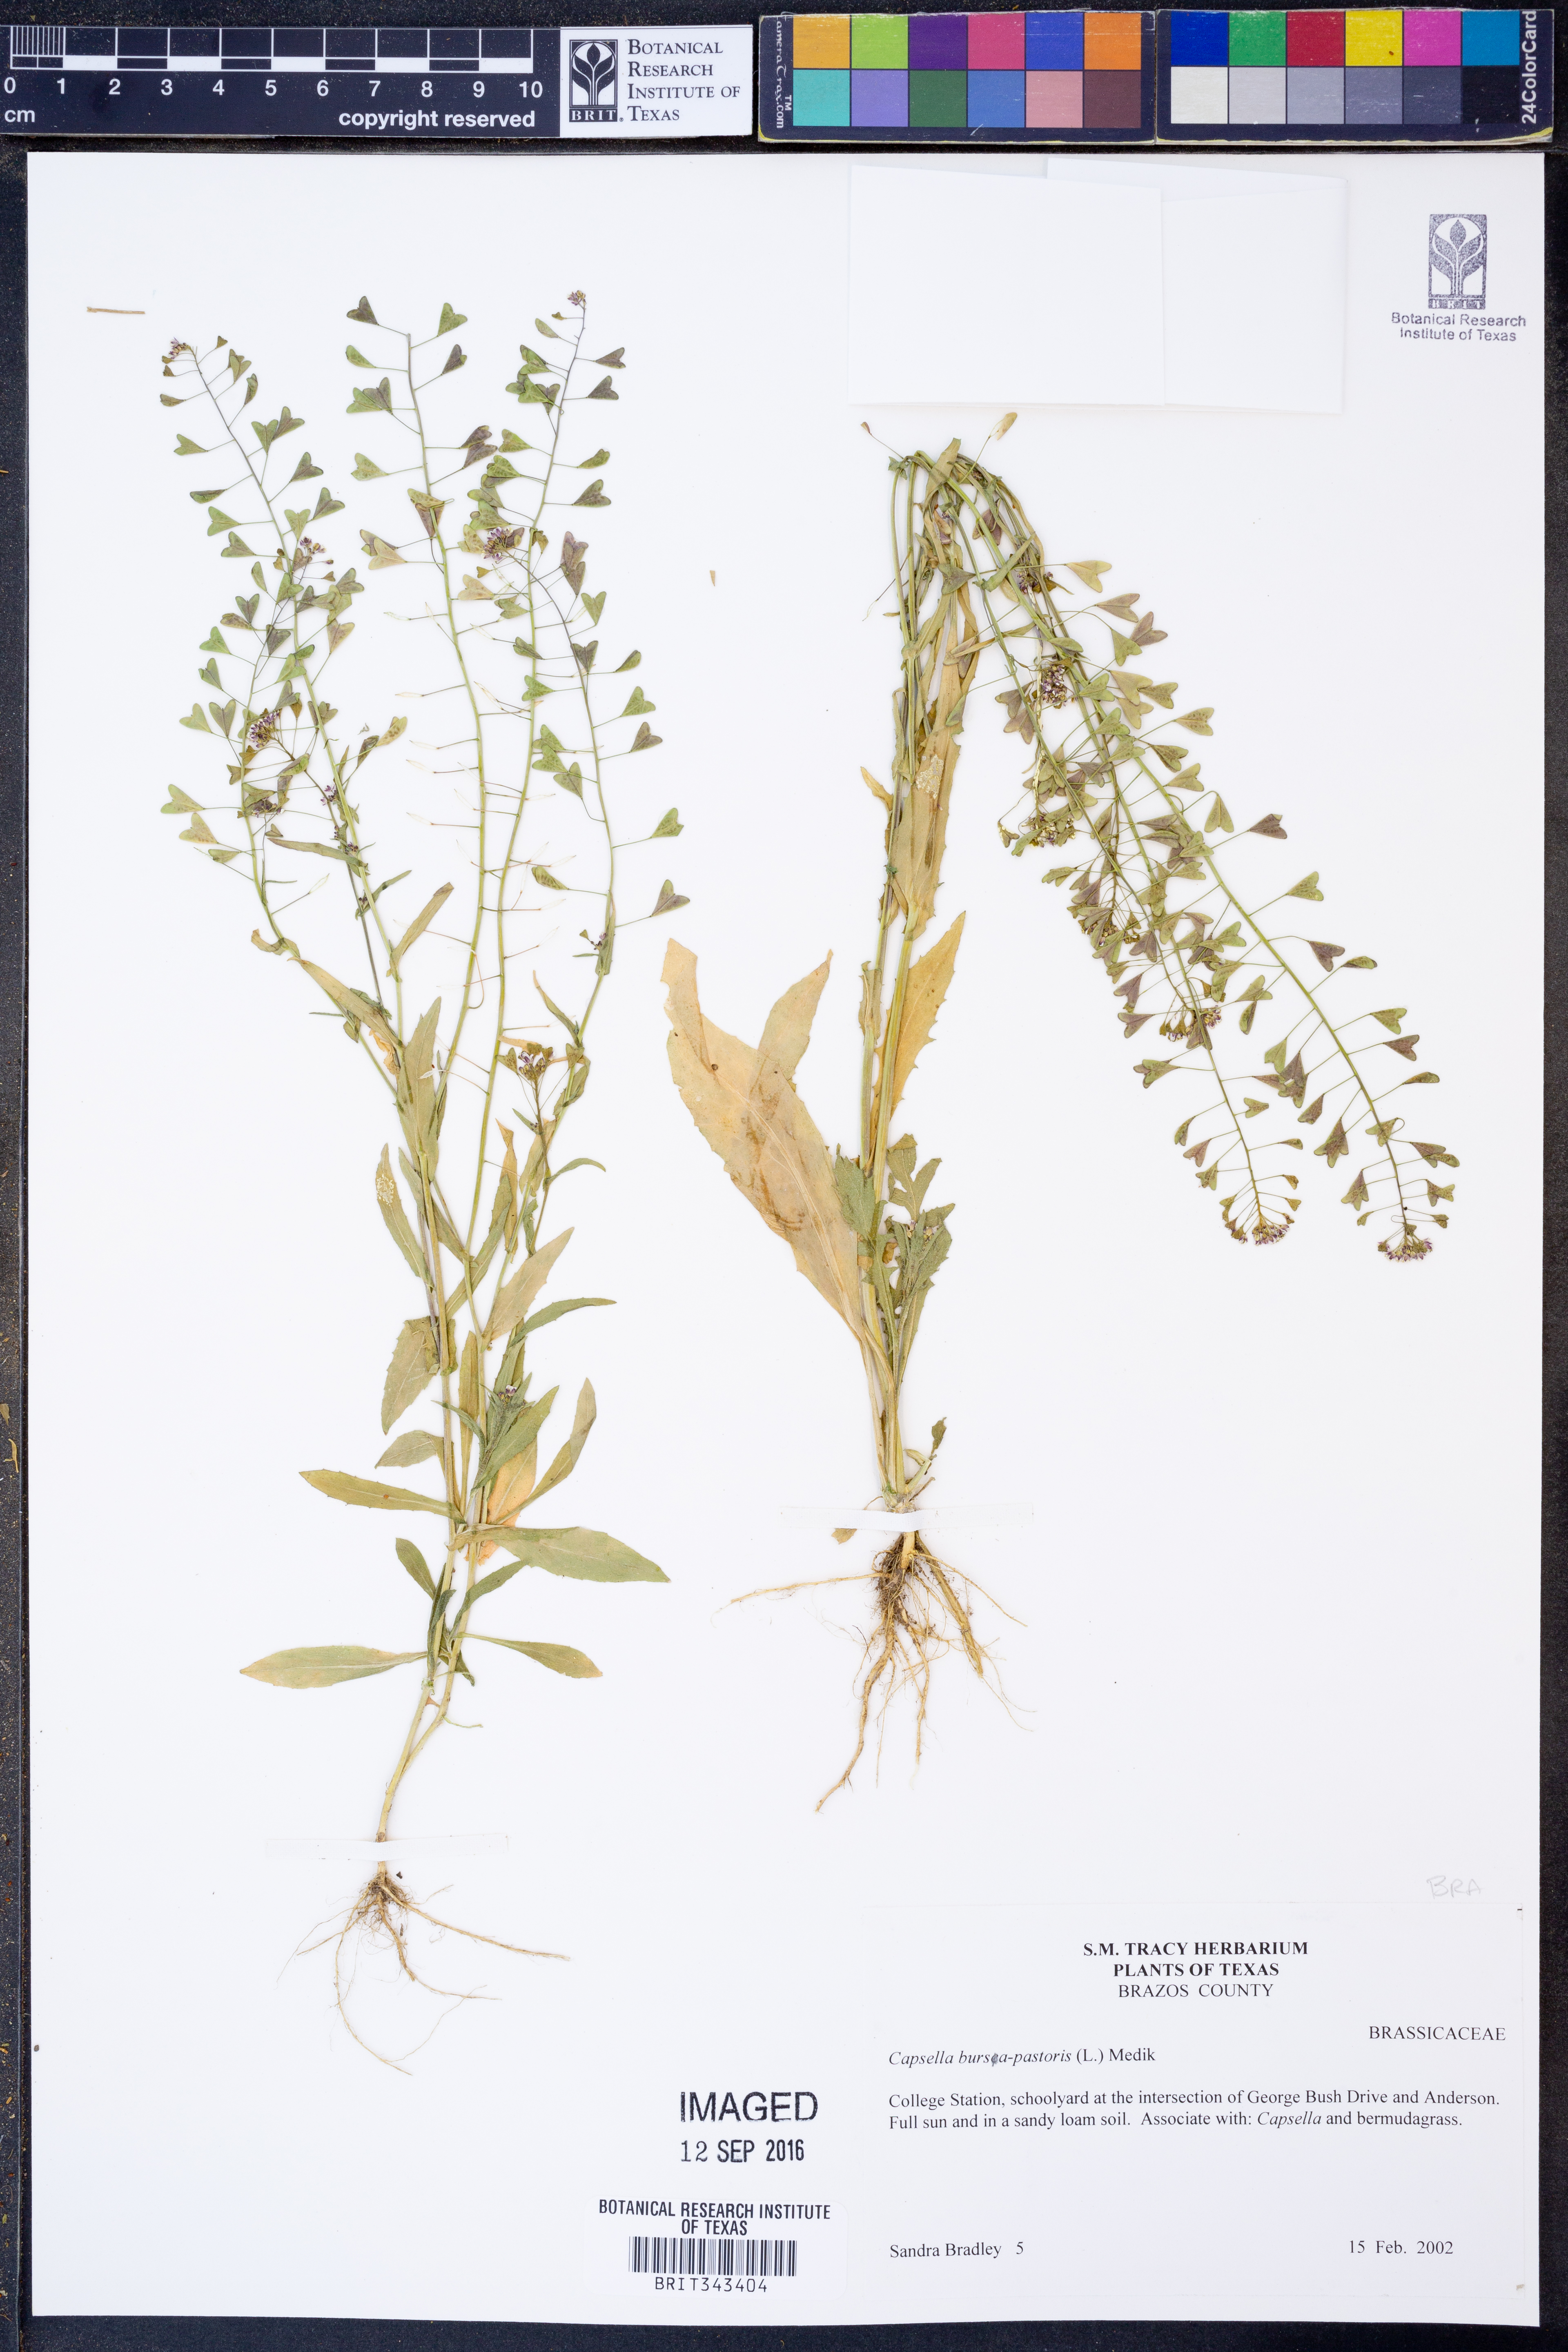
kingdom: Plantae
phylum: Tracheophyta
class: Magnoliopsida
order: Brassicales
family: Brassicaceae
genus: Capsella
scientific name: Capsella bursa-pastoris
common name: Shepherd's purse
